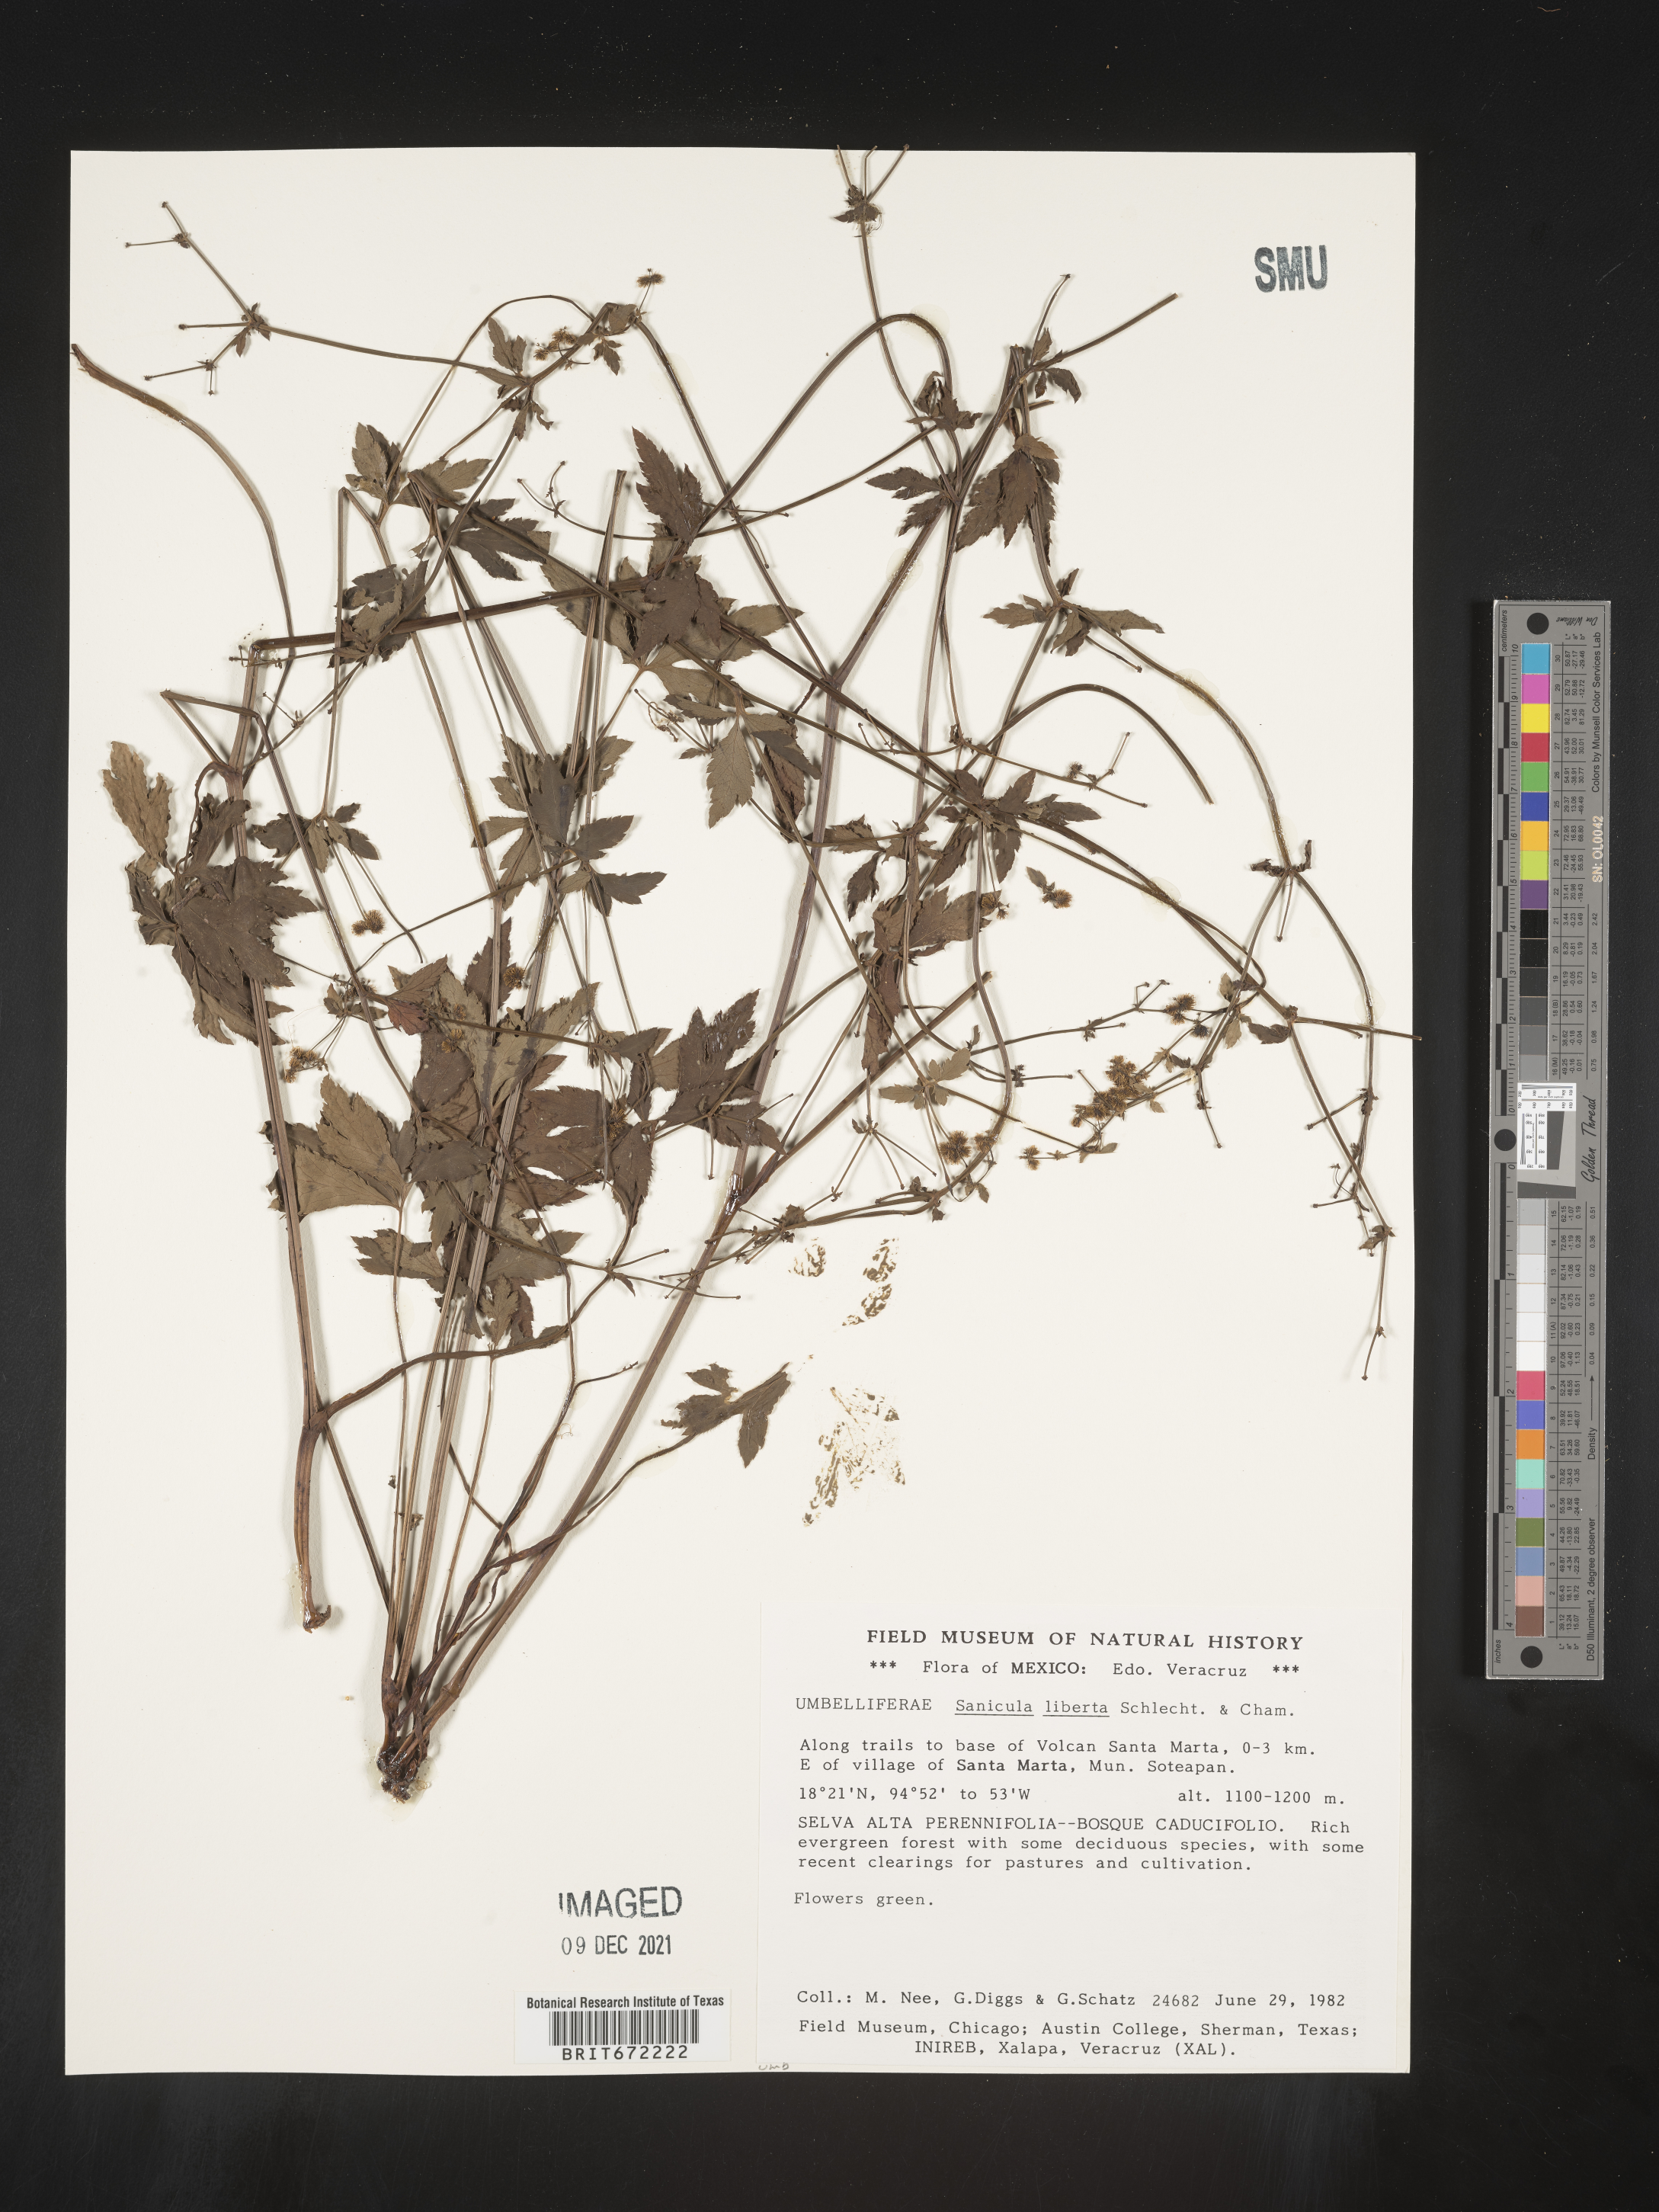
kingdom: Plantae
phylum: Tracheophyta
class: Magnoliopsida
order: Apiales
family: Apiaceae
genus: Sanicula
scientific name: Sanicula
